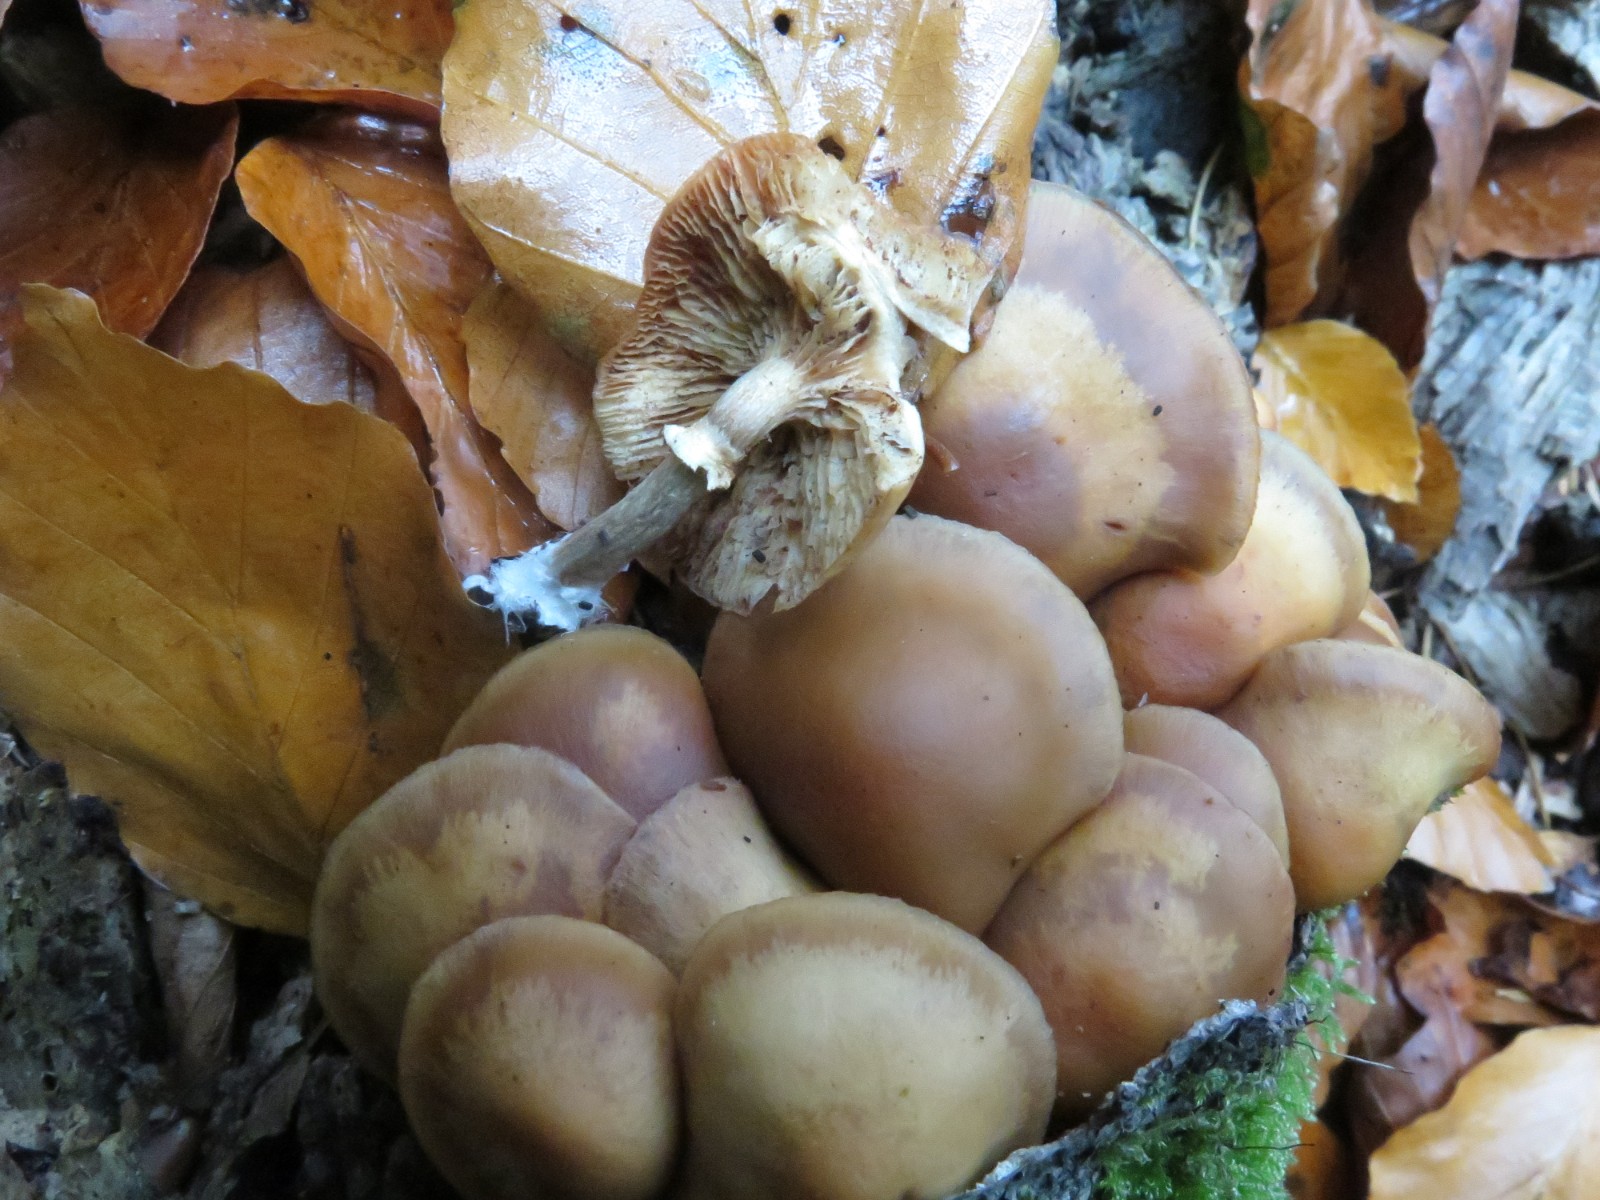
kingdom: Fungi
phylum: Basidiomycota
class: Agaricomycetes
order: Agaricales
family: Strophariaceae
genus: Kuehneromyces
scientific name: Kuehneromyces mutabilis
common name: foranderlig skælhat
